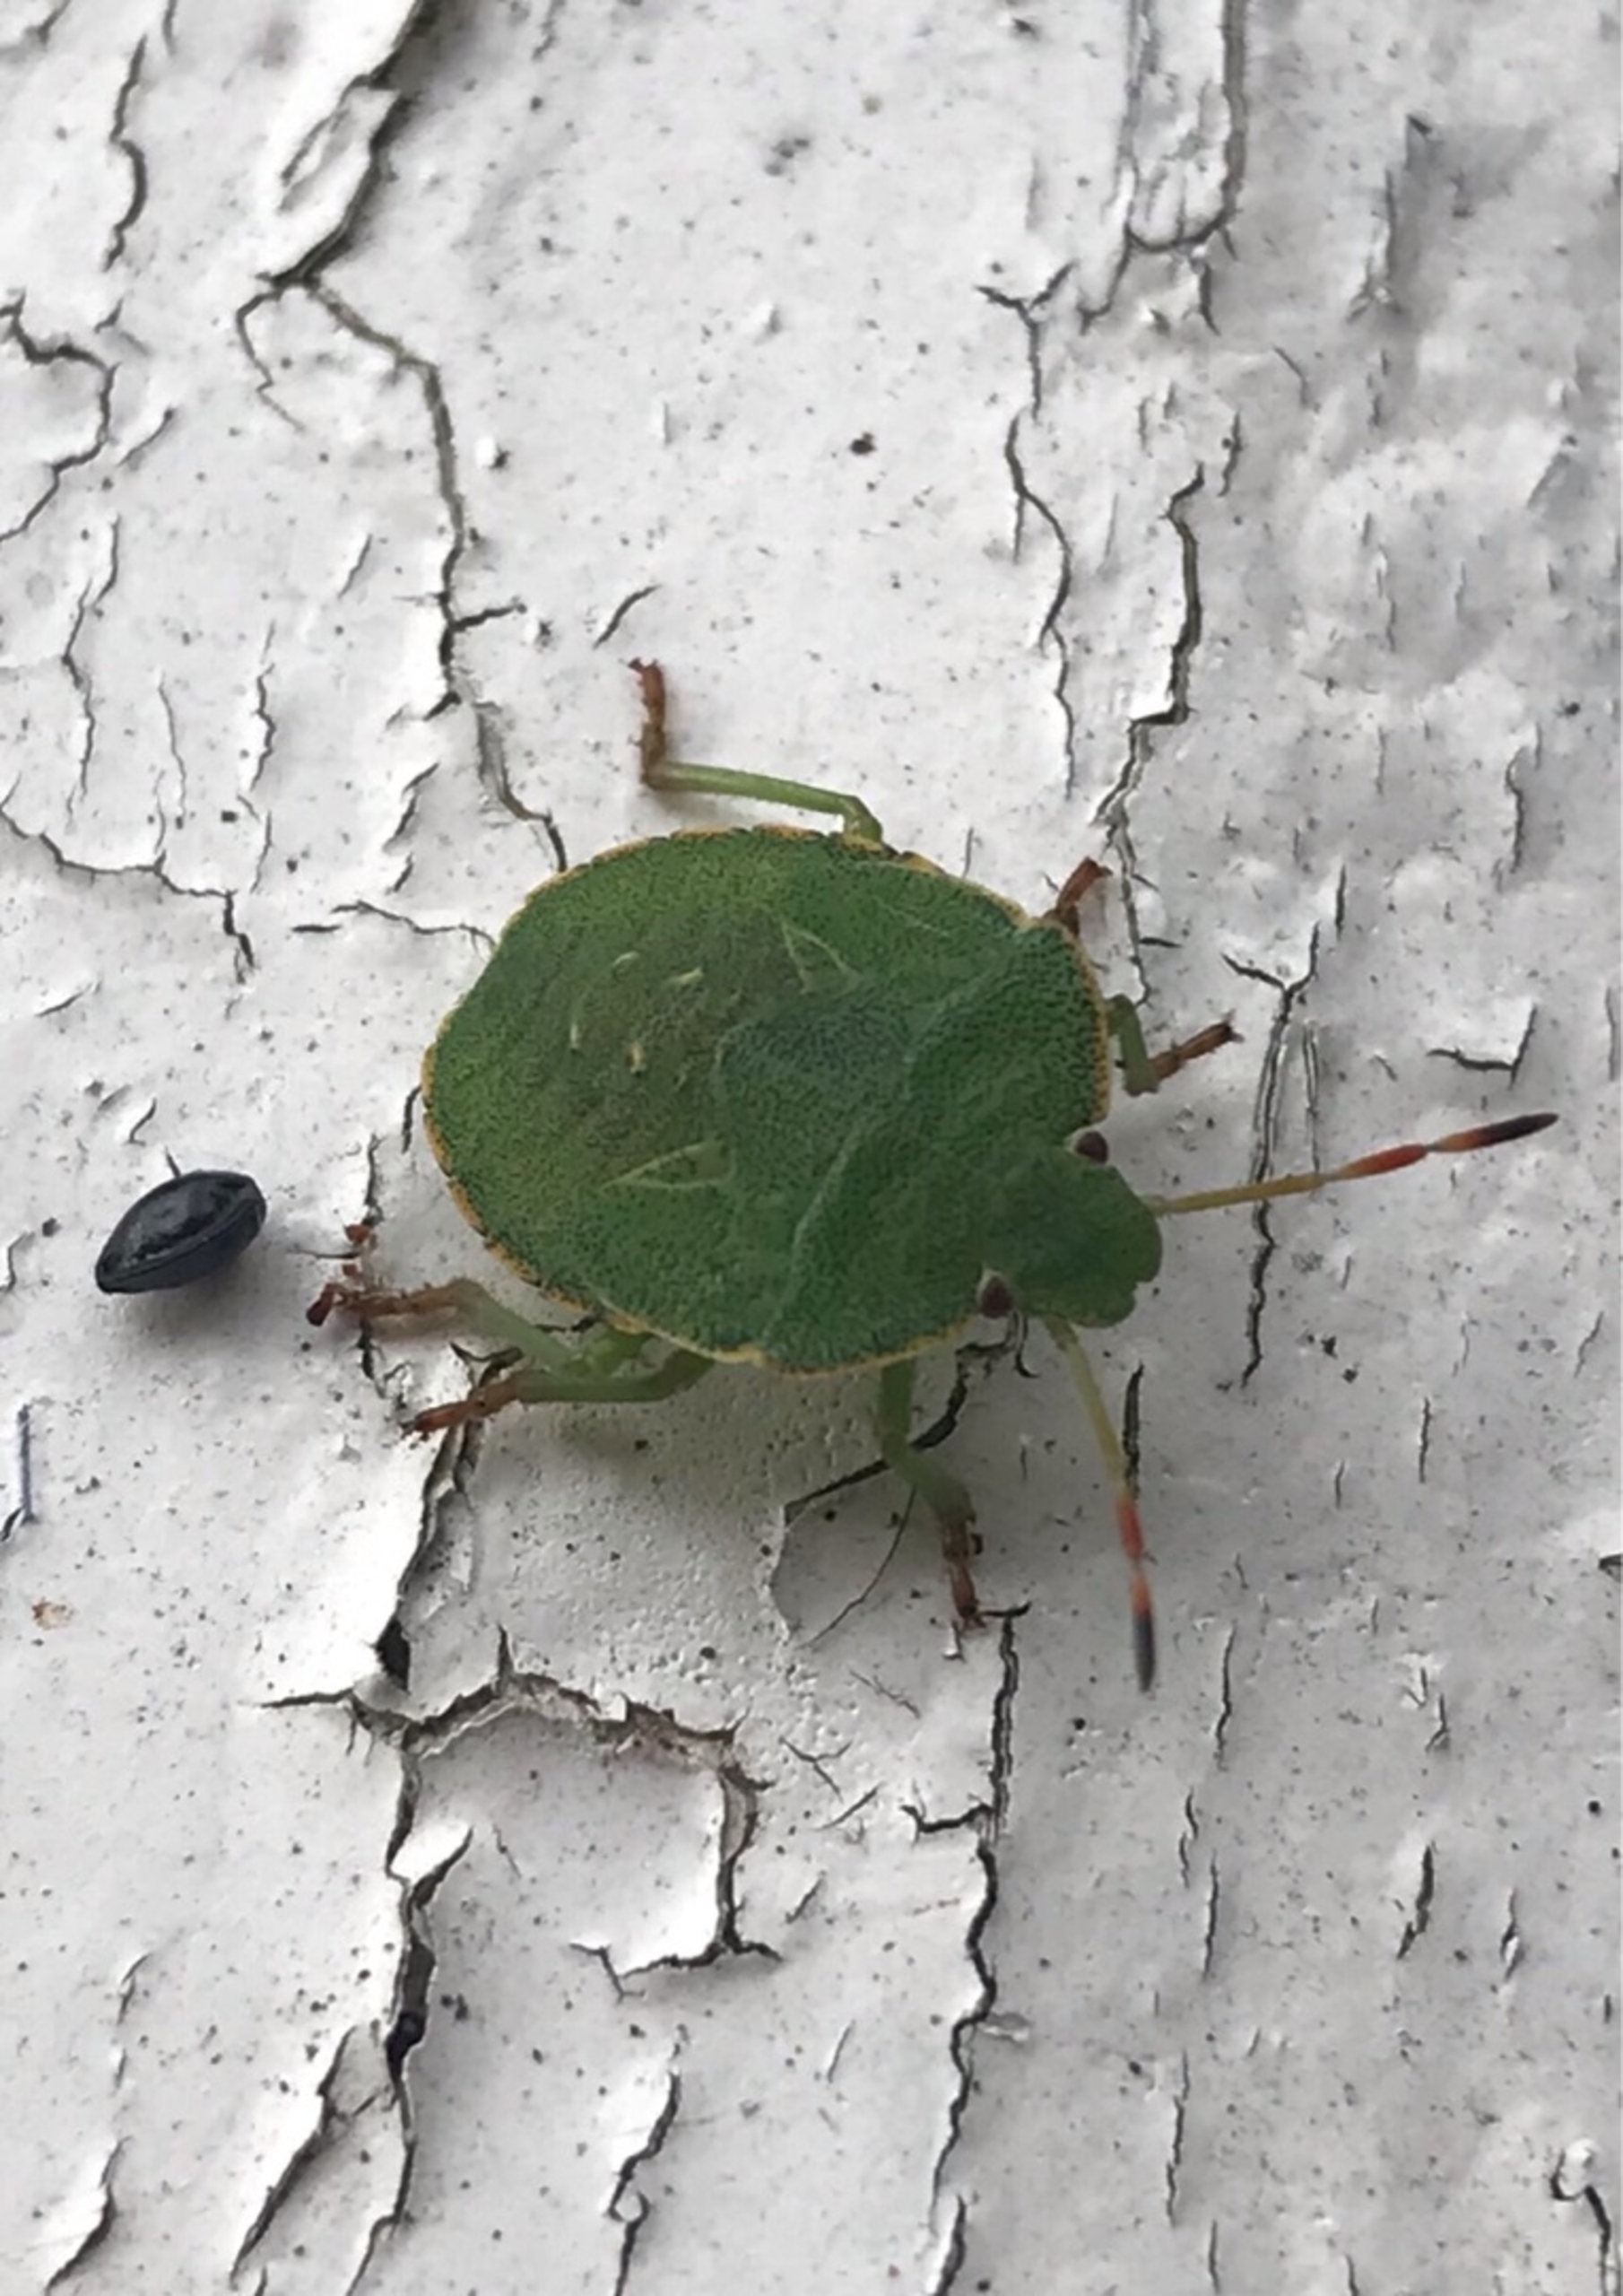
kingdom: Animalia
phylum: Arthropoda
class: Insecta
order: Hemiptera
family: Pentatomidae
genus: Palomena
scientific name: Palomena prasina
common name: Grøn bredtæge
